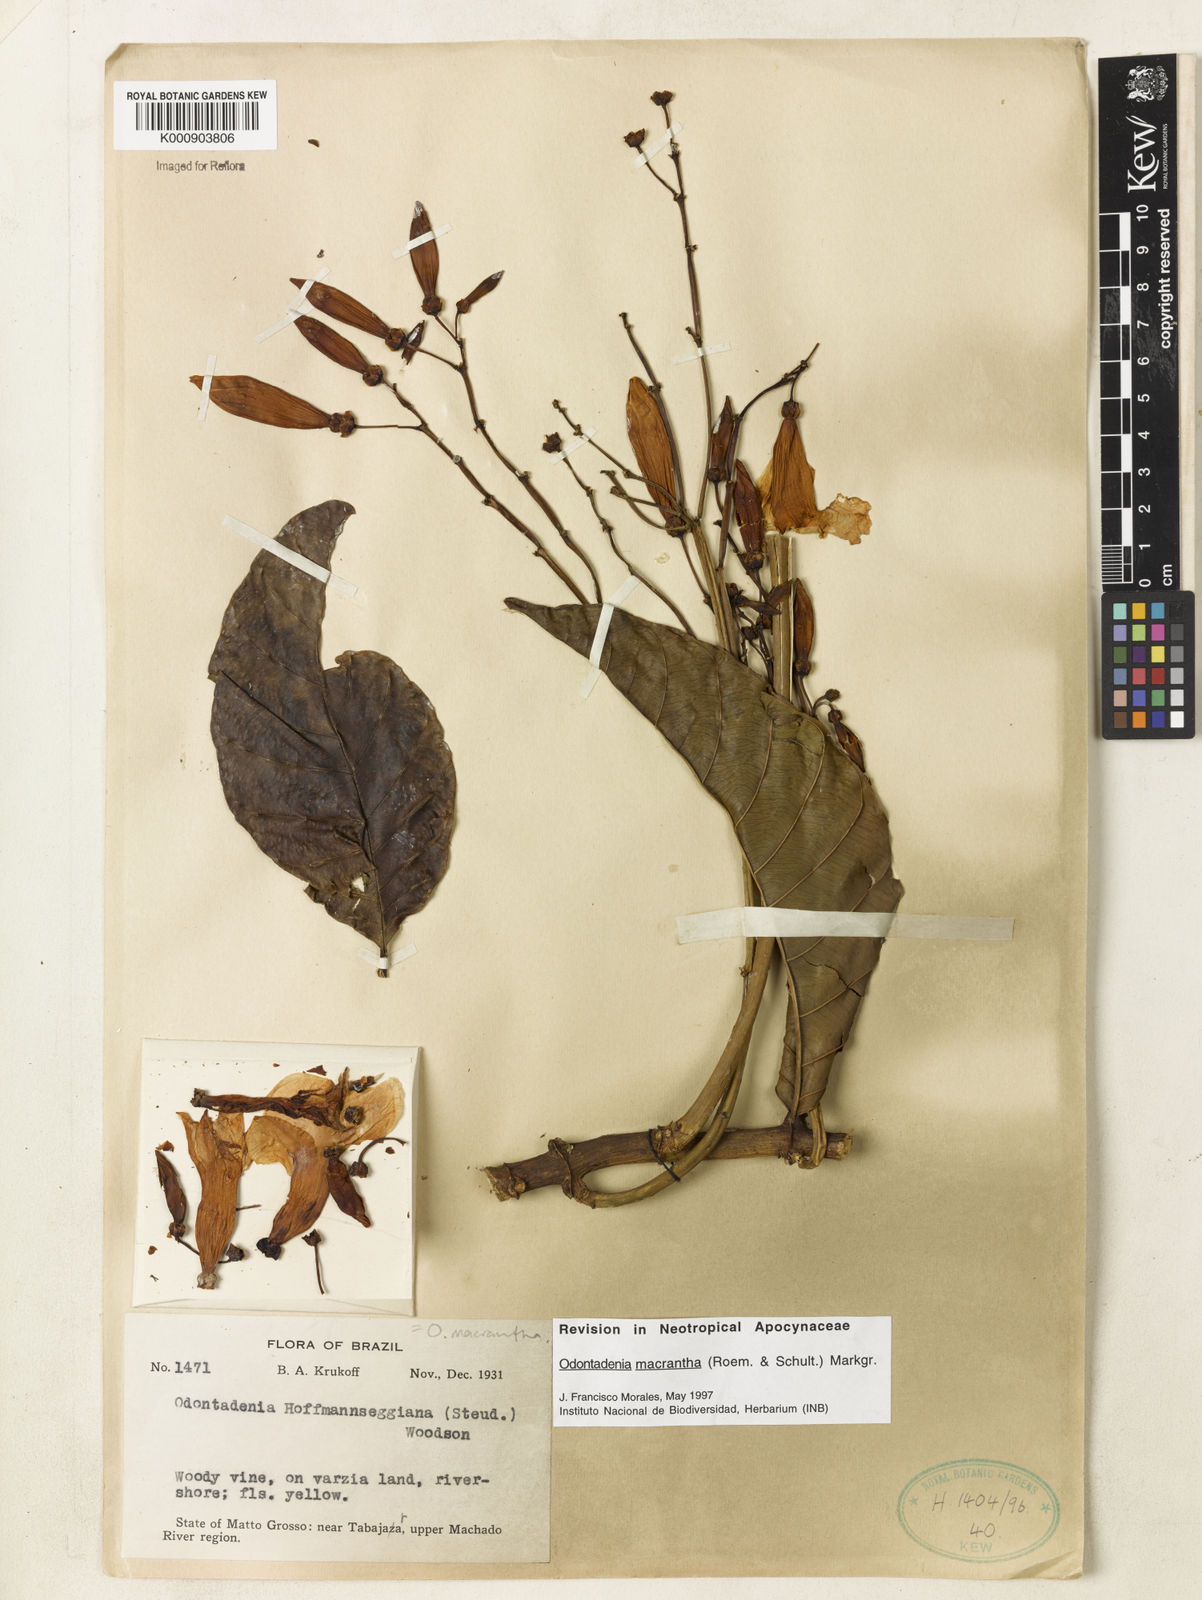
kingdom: Plantae
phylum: Tracheophyta
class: Magnoliopsida
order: Gentianales
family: Apocynaceae
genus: Odontadenia
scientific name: Odontadenia semidigyna
